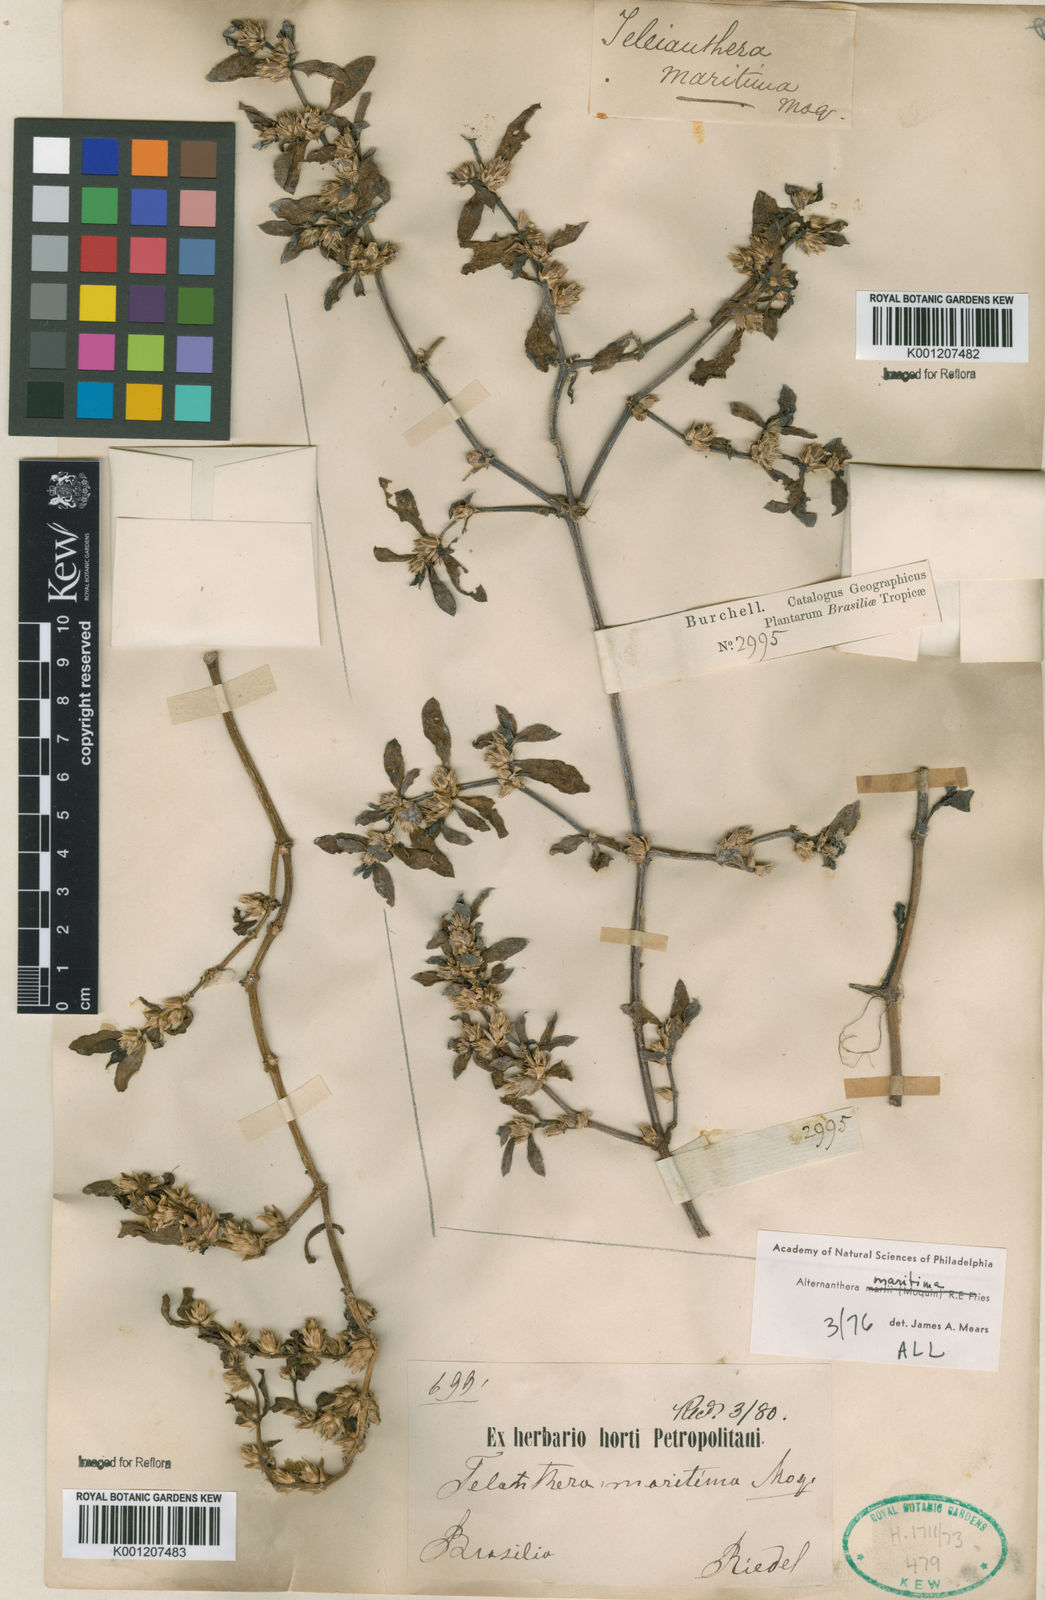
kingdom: Plantae
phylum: Tracheophyta
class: Magnoliopsida
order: Caryophyllales
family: Amaranthaceae
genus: Alternanthera
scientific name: Alternanthera littoralis
